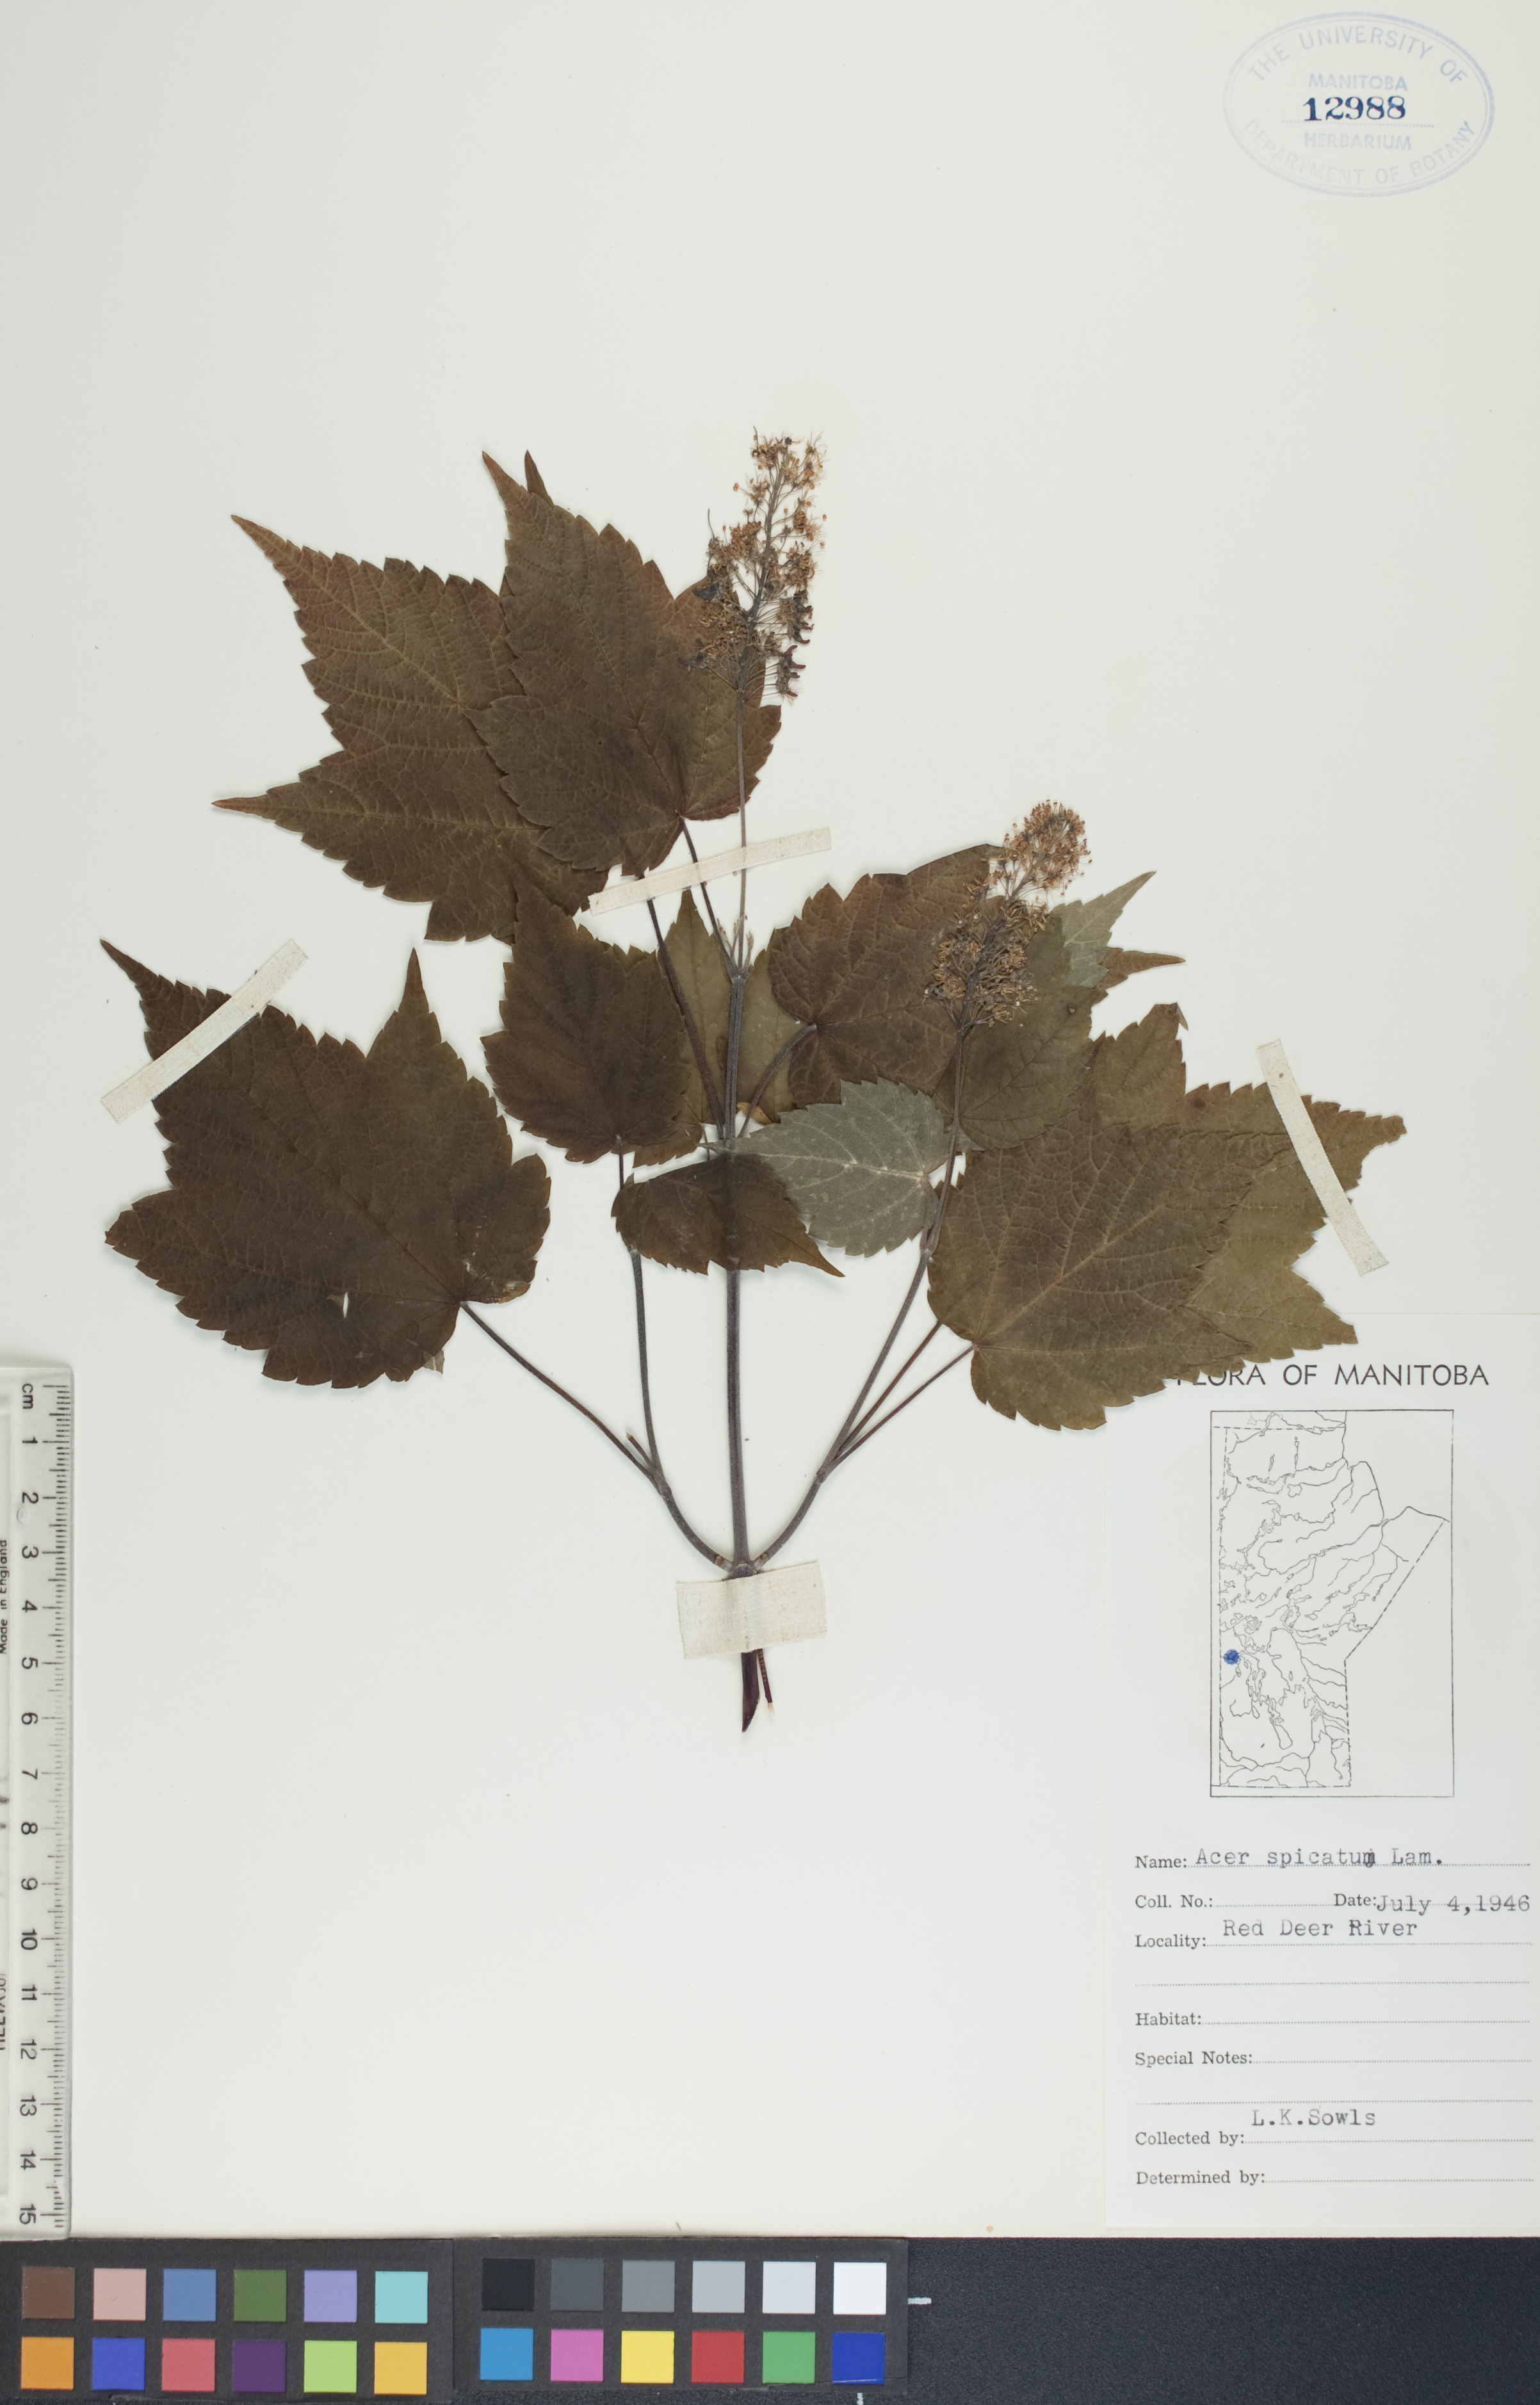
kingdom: Plantae
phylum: Tracheophyta
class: Magnoliopsida
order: Sapindales
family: Sapindaceae
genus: Acer
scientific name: Acer spicatum
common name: Mountain maple
